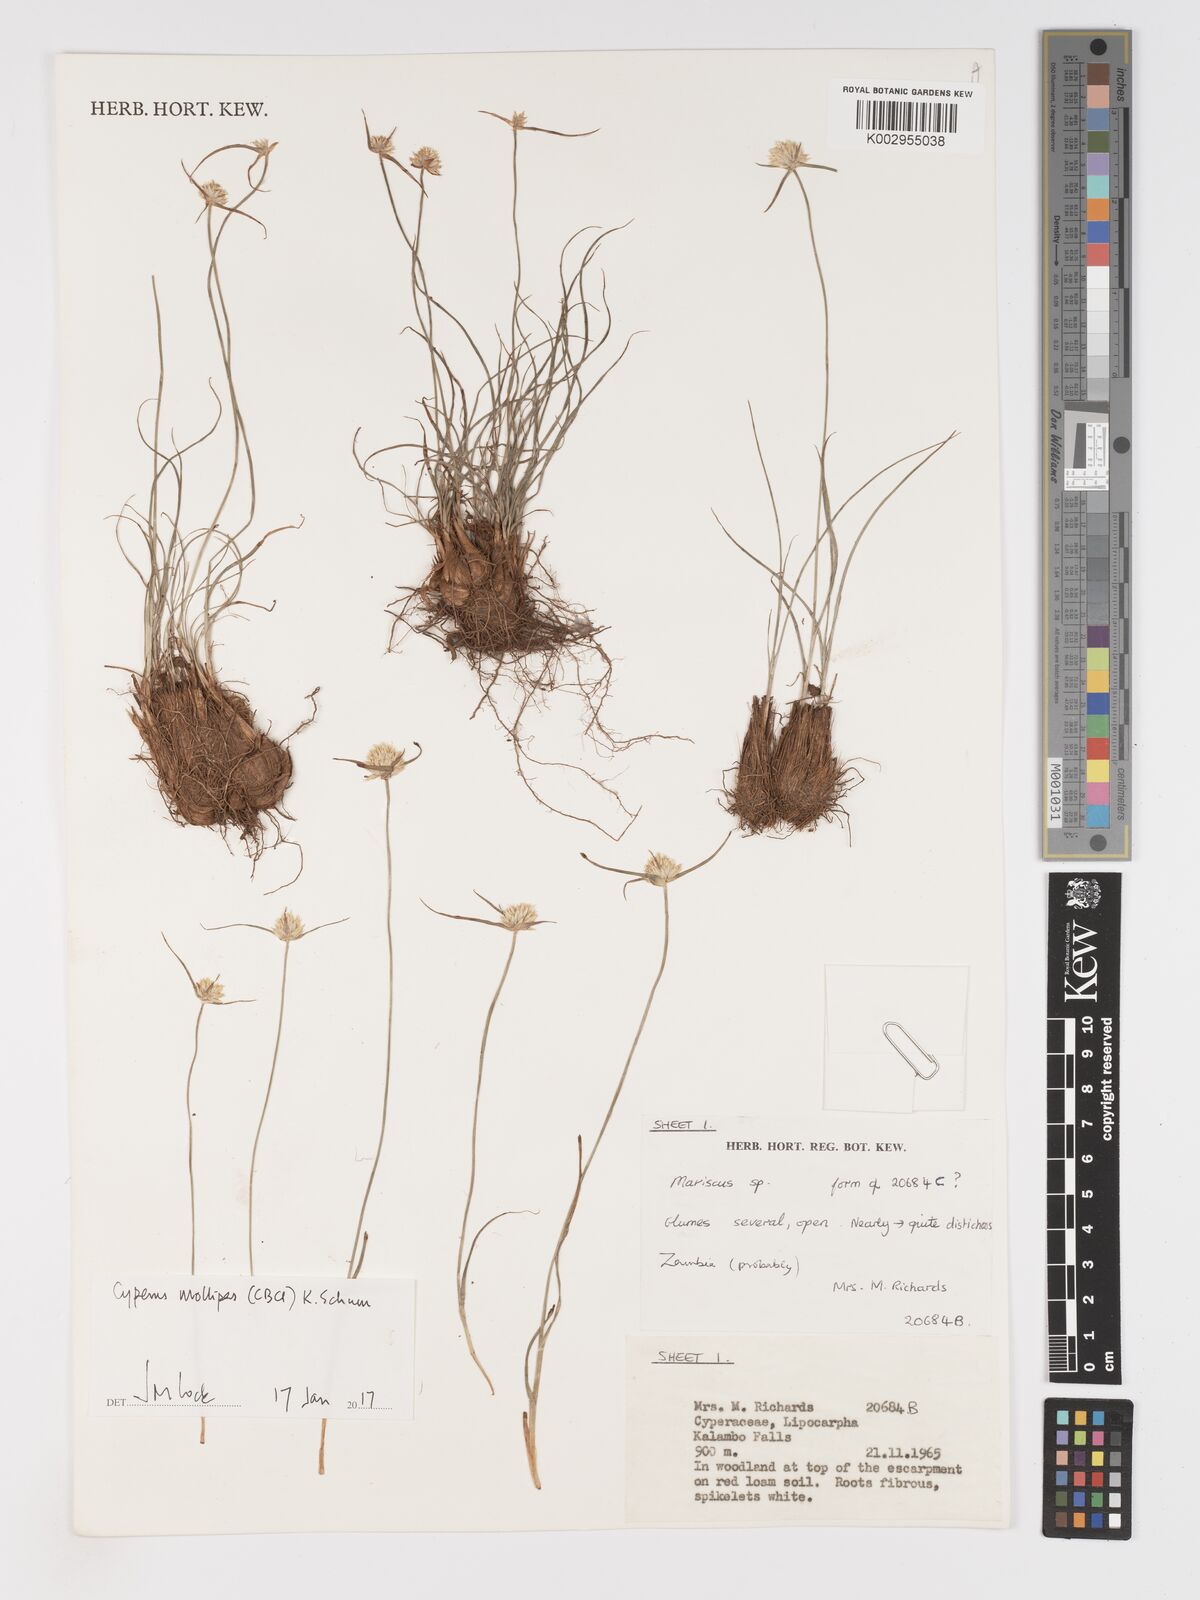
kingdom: Plantae
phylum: Tracheophyta
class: Liliopsida
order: Poales
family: Cyperaceae
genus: Cyperus
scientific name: Cyperus mollipes
